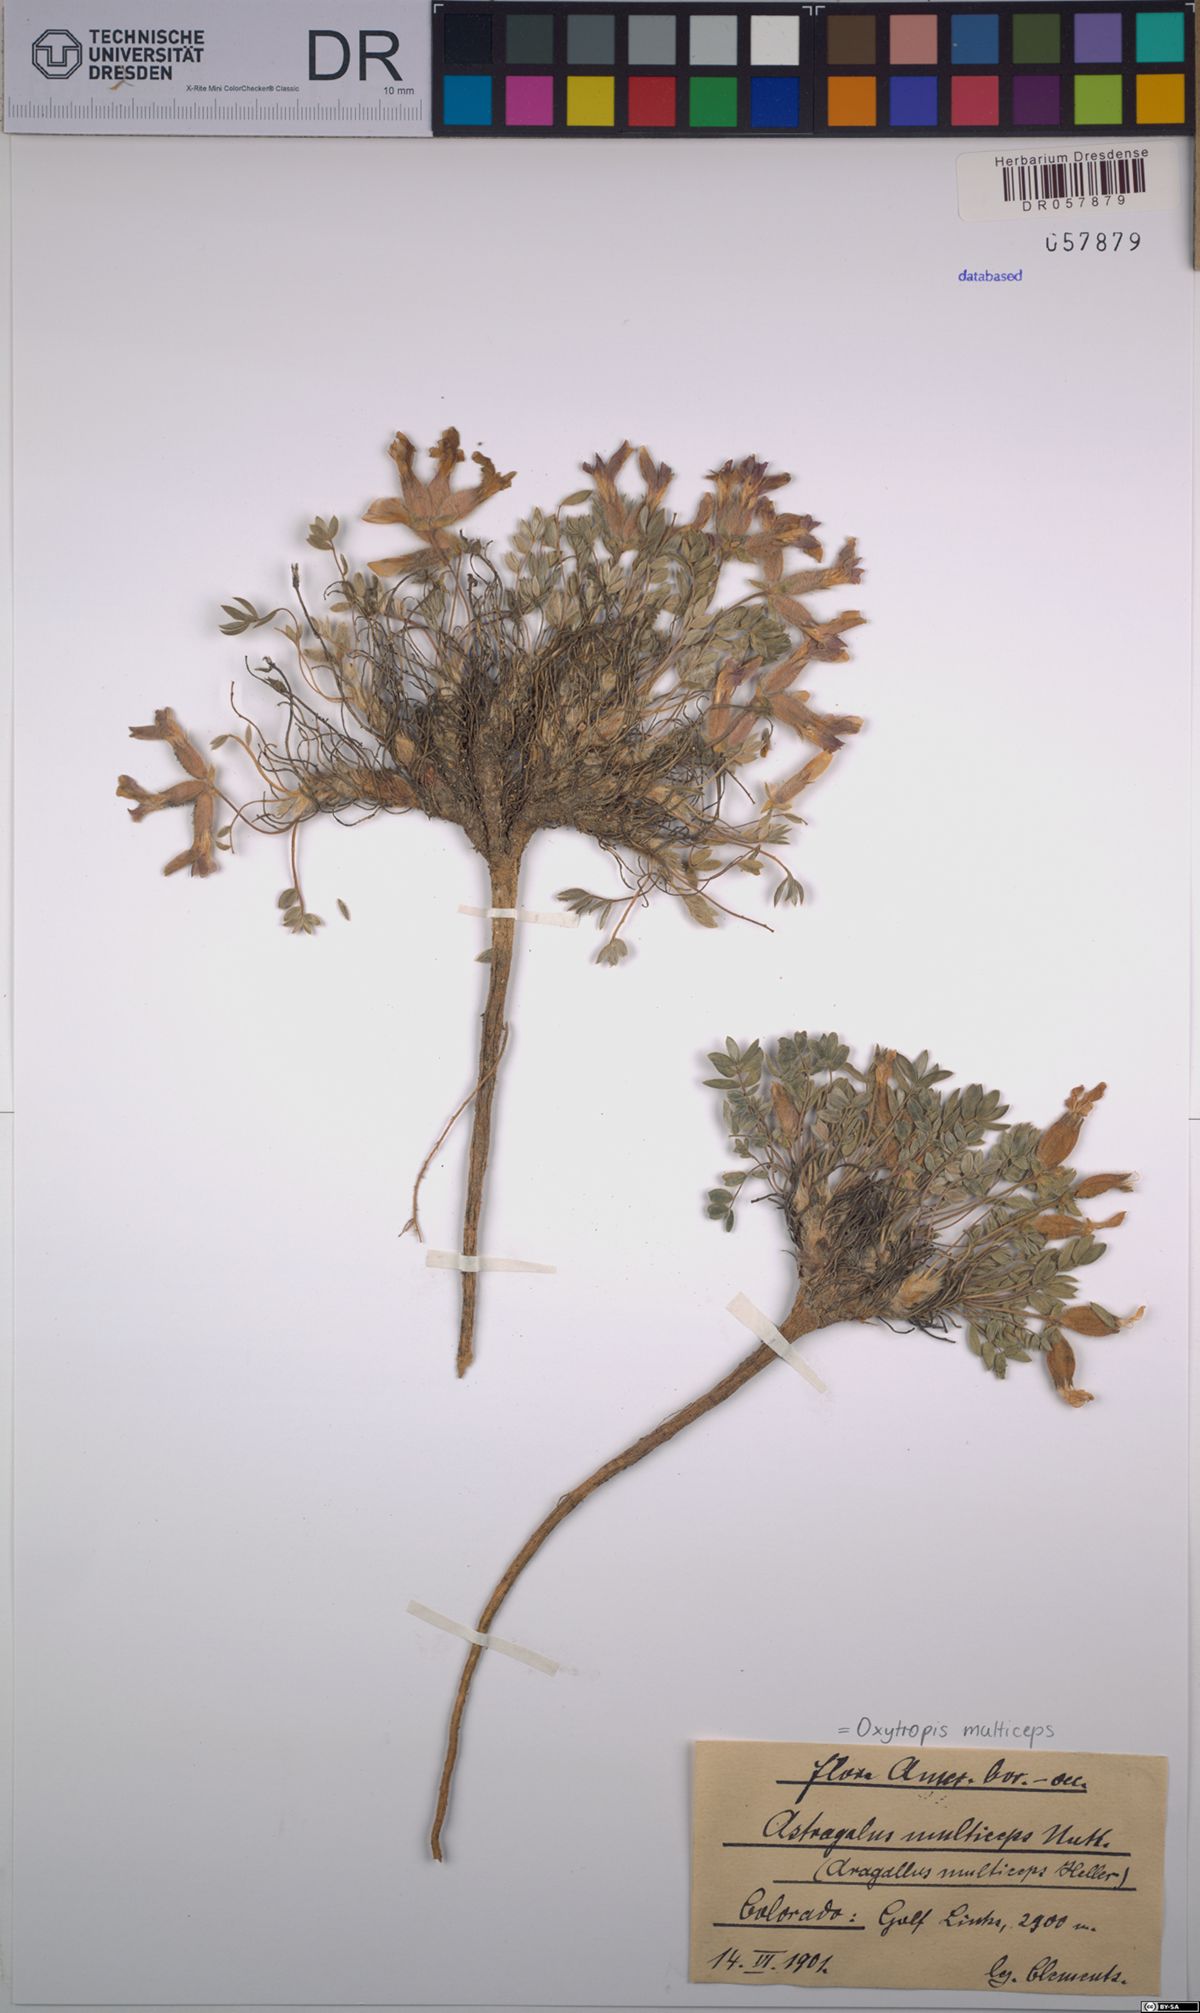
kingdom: Plantae
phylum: Tracheophyta
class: Magnoliopsida
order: Fabales
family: Fabaceae
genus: Oxytropis
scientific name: Oxytropis multiceps
